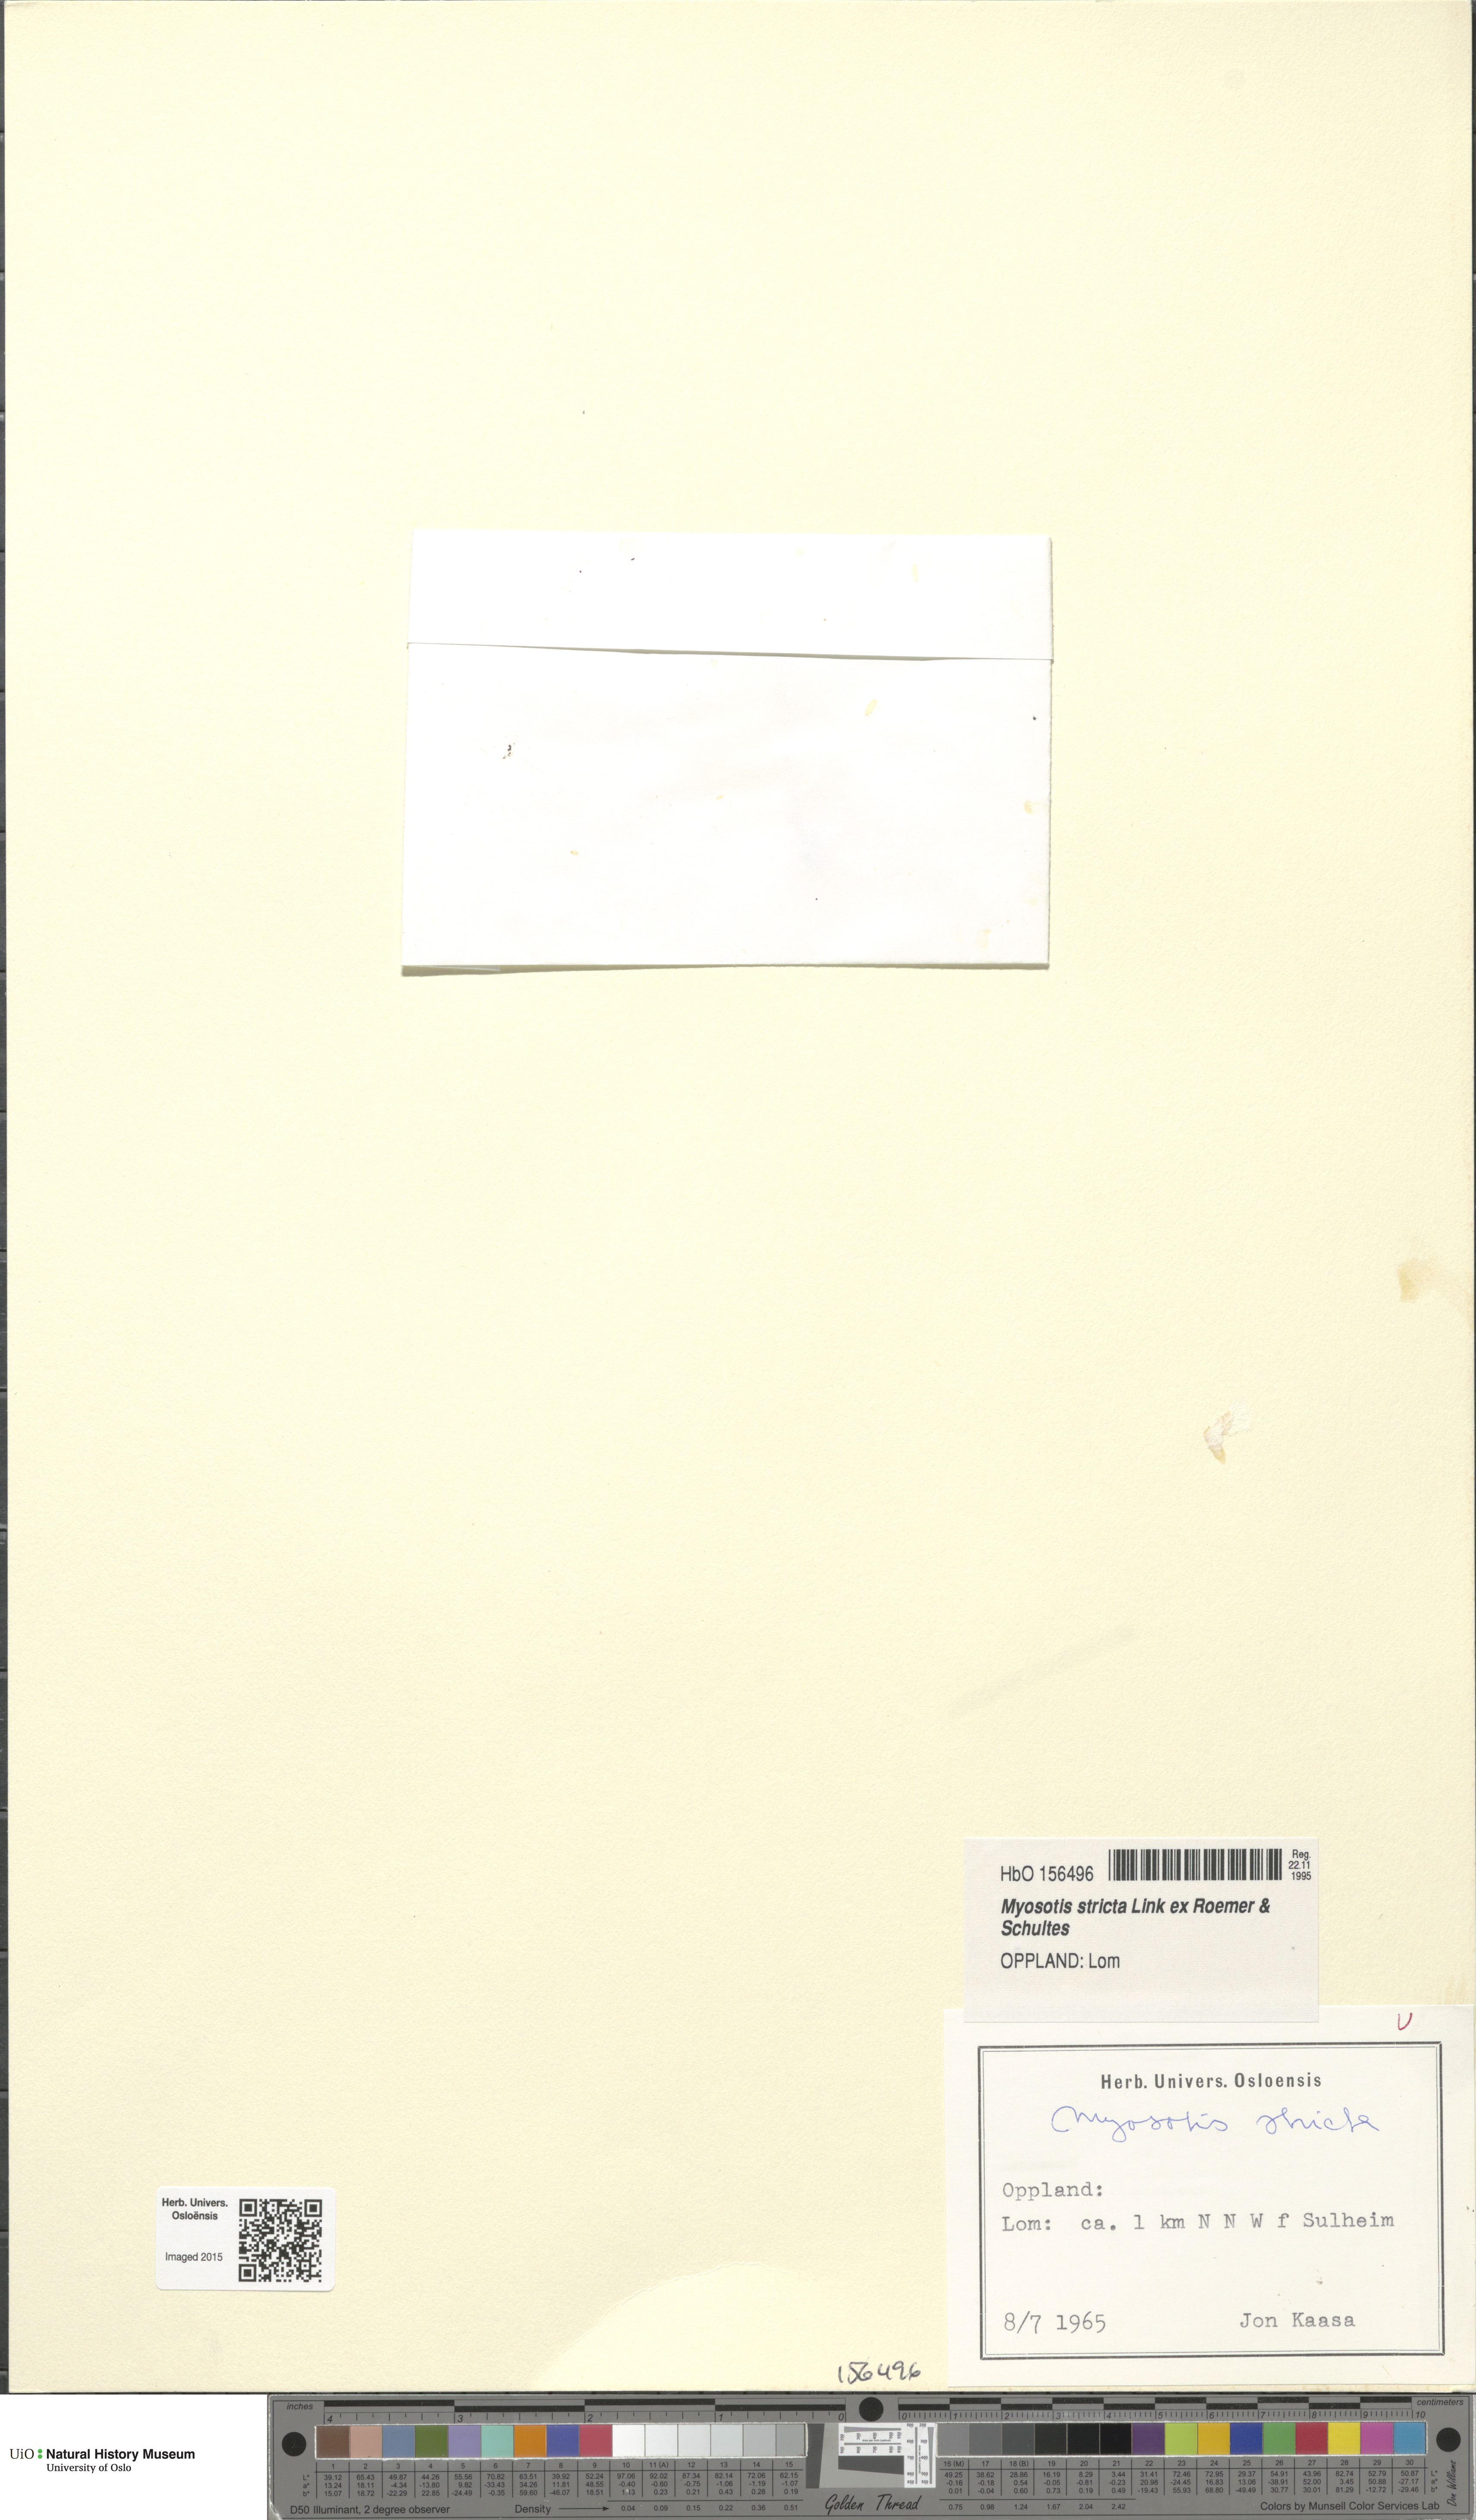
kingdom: Plantae
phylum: Tracheophyta
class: Magnoliopsida
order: Boraginales
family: Boraginaceae
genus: Myosotis
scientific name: Myosotis stricta
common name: Strict forget-me-not
